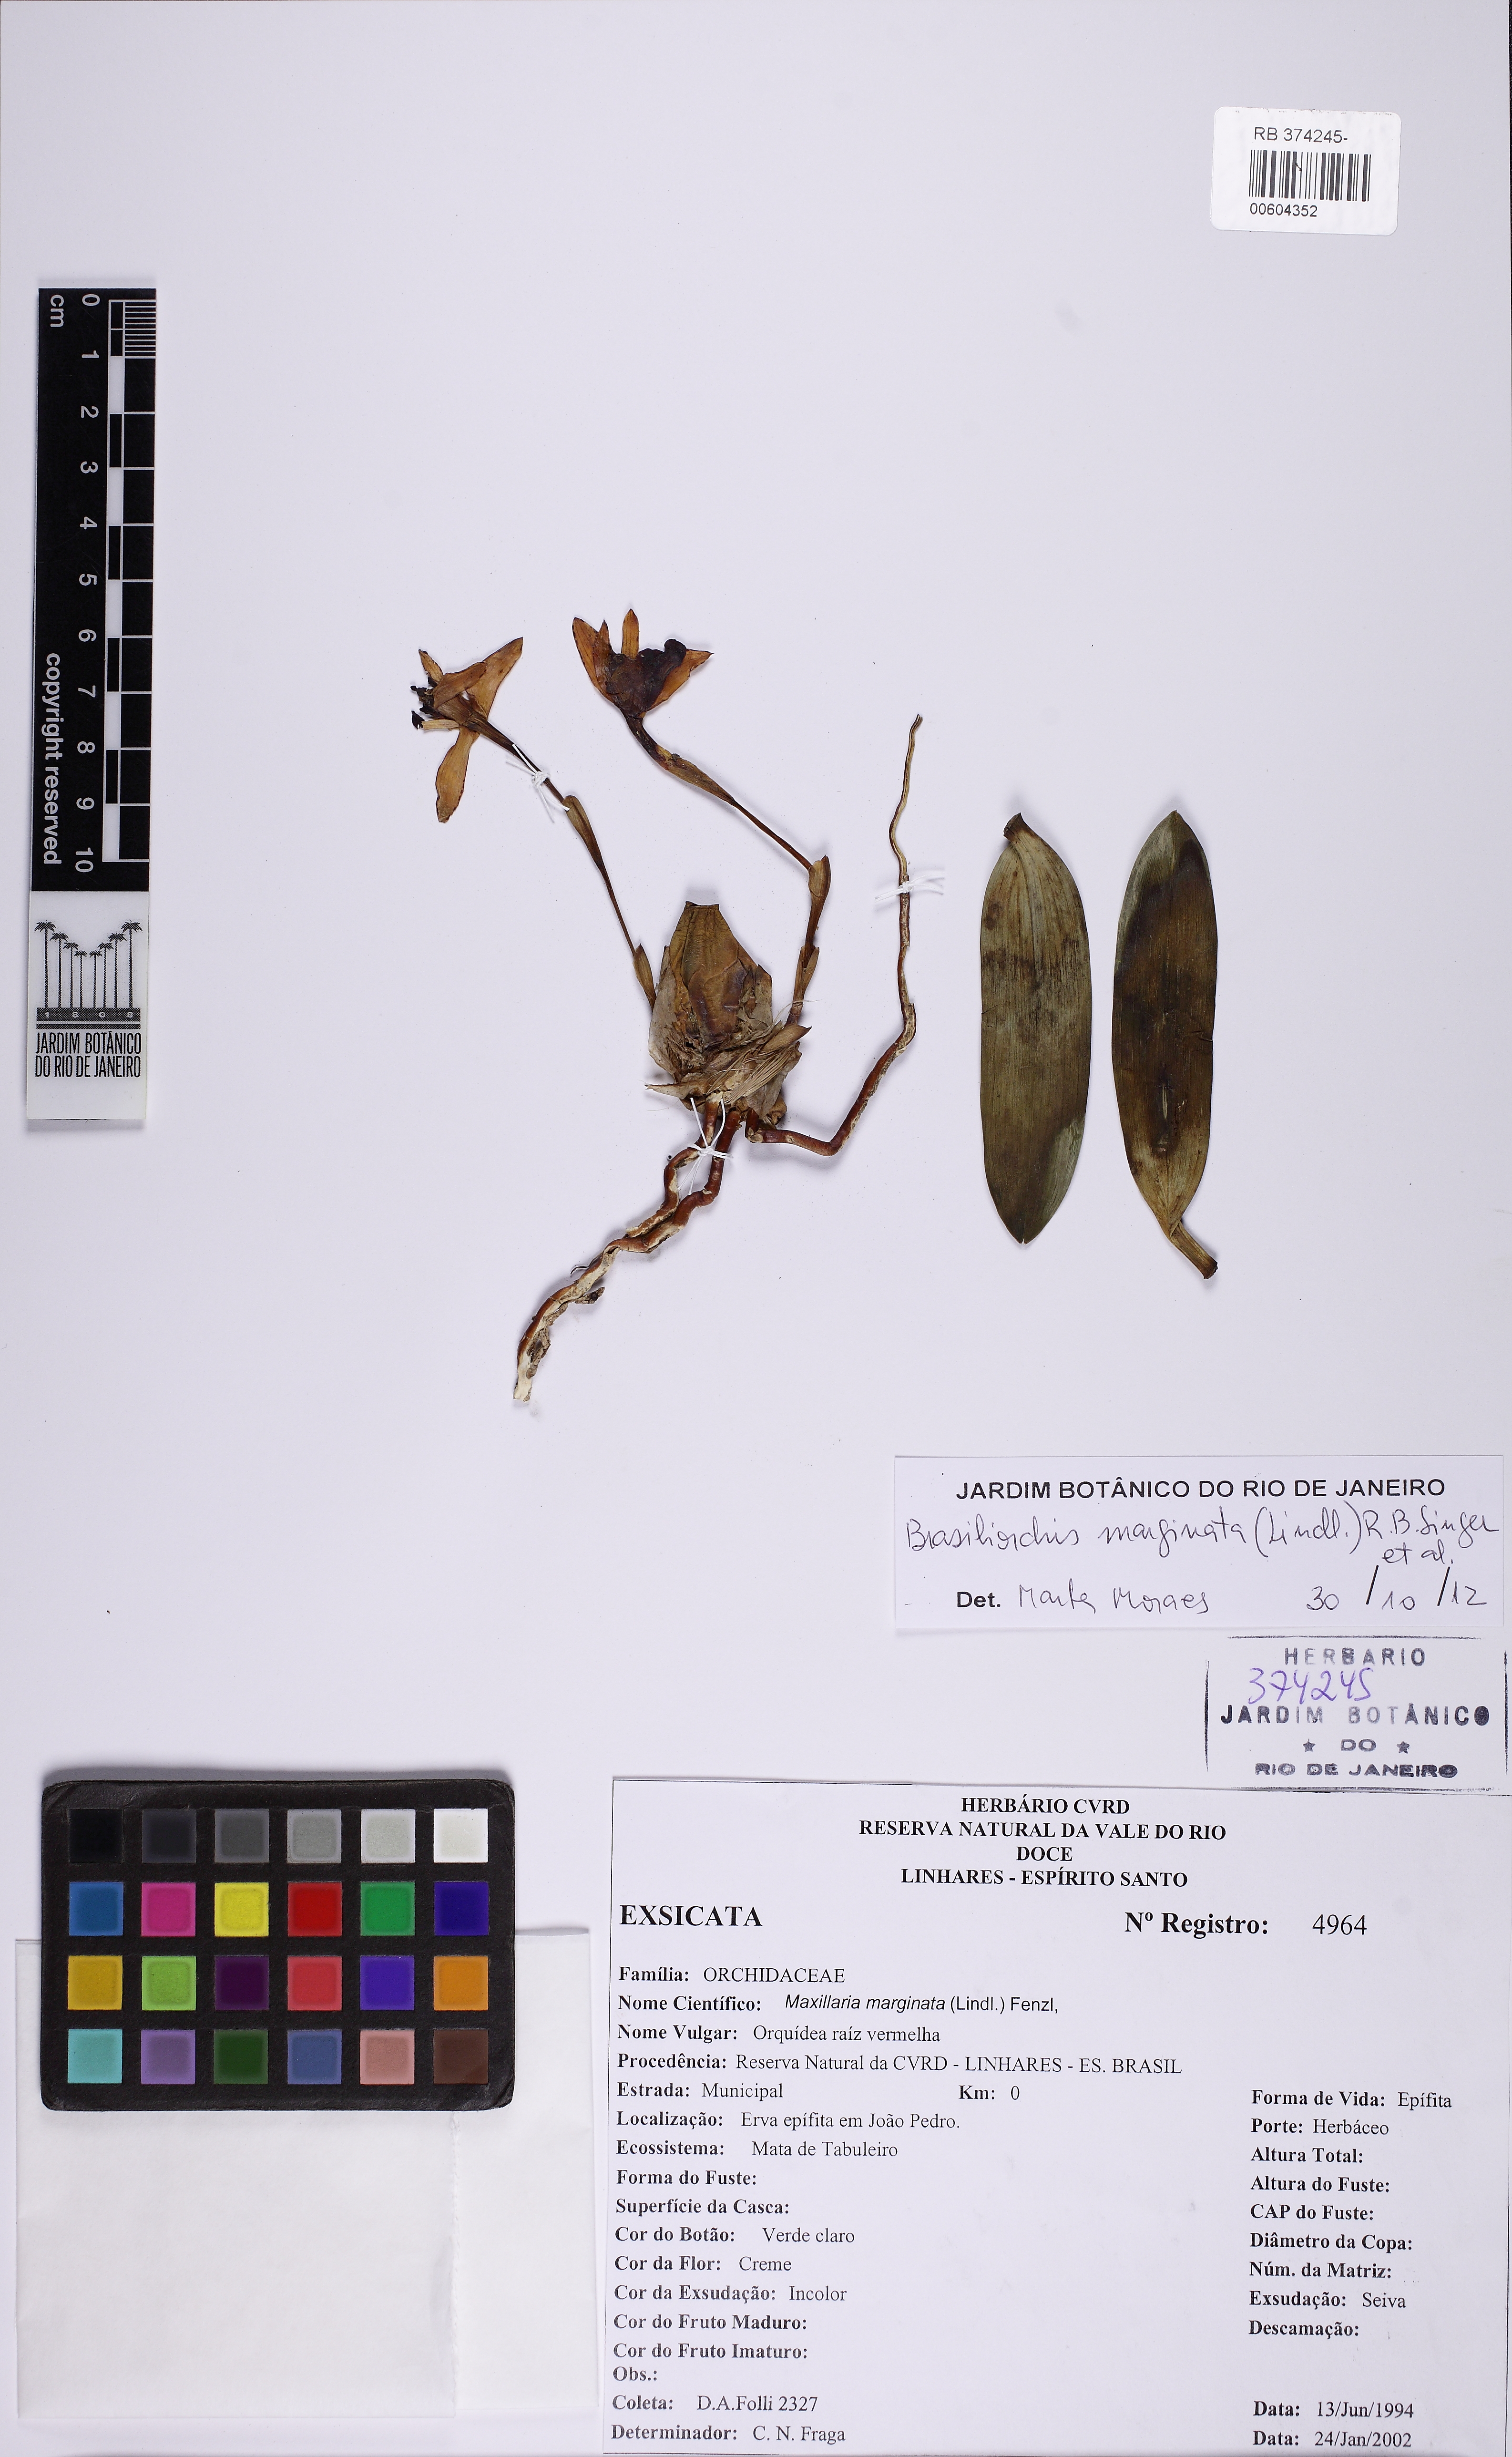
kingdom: Plantae
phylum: Tracheophyta
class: Liliopsida
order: Asparagales
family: Orchidaceae
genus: Maxillaria
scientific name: Maxillaria marginata
